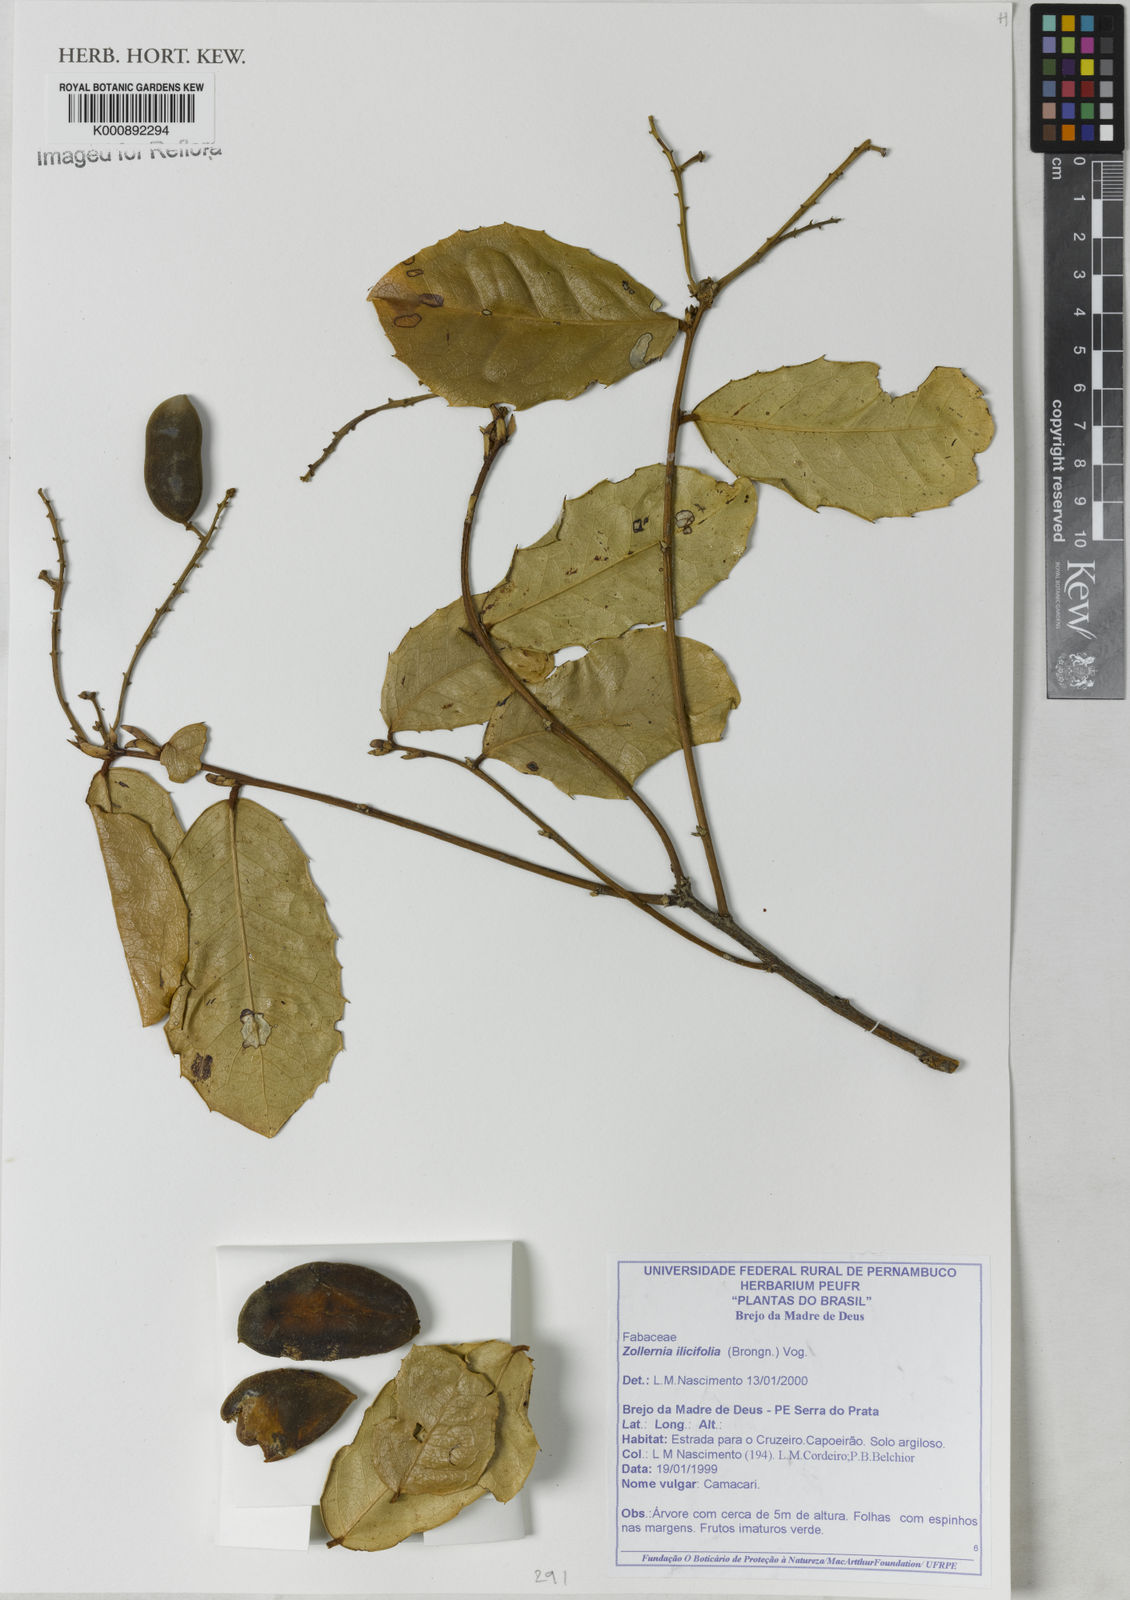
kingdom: Plantae
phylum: Tracheophyta
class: Magnoliopsida
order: Fabales
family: Fabaceae
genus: Zollernia
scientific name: Zollernia ilicifolia
